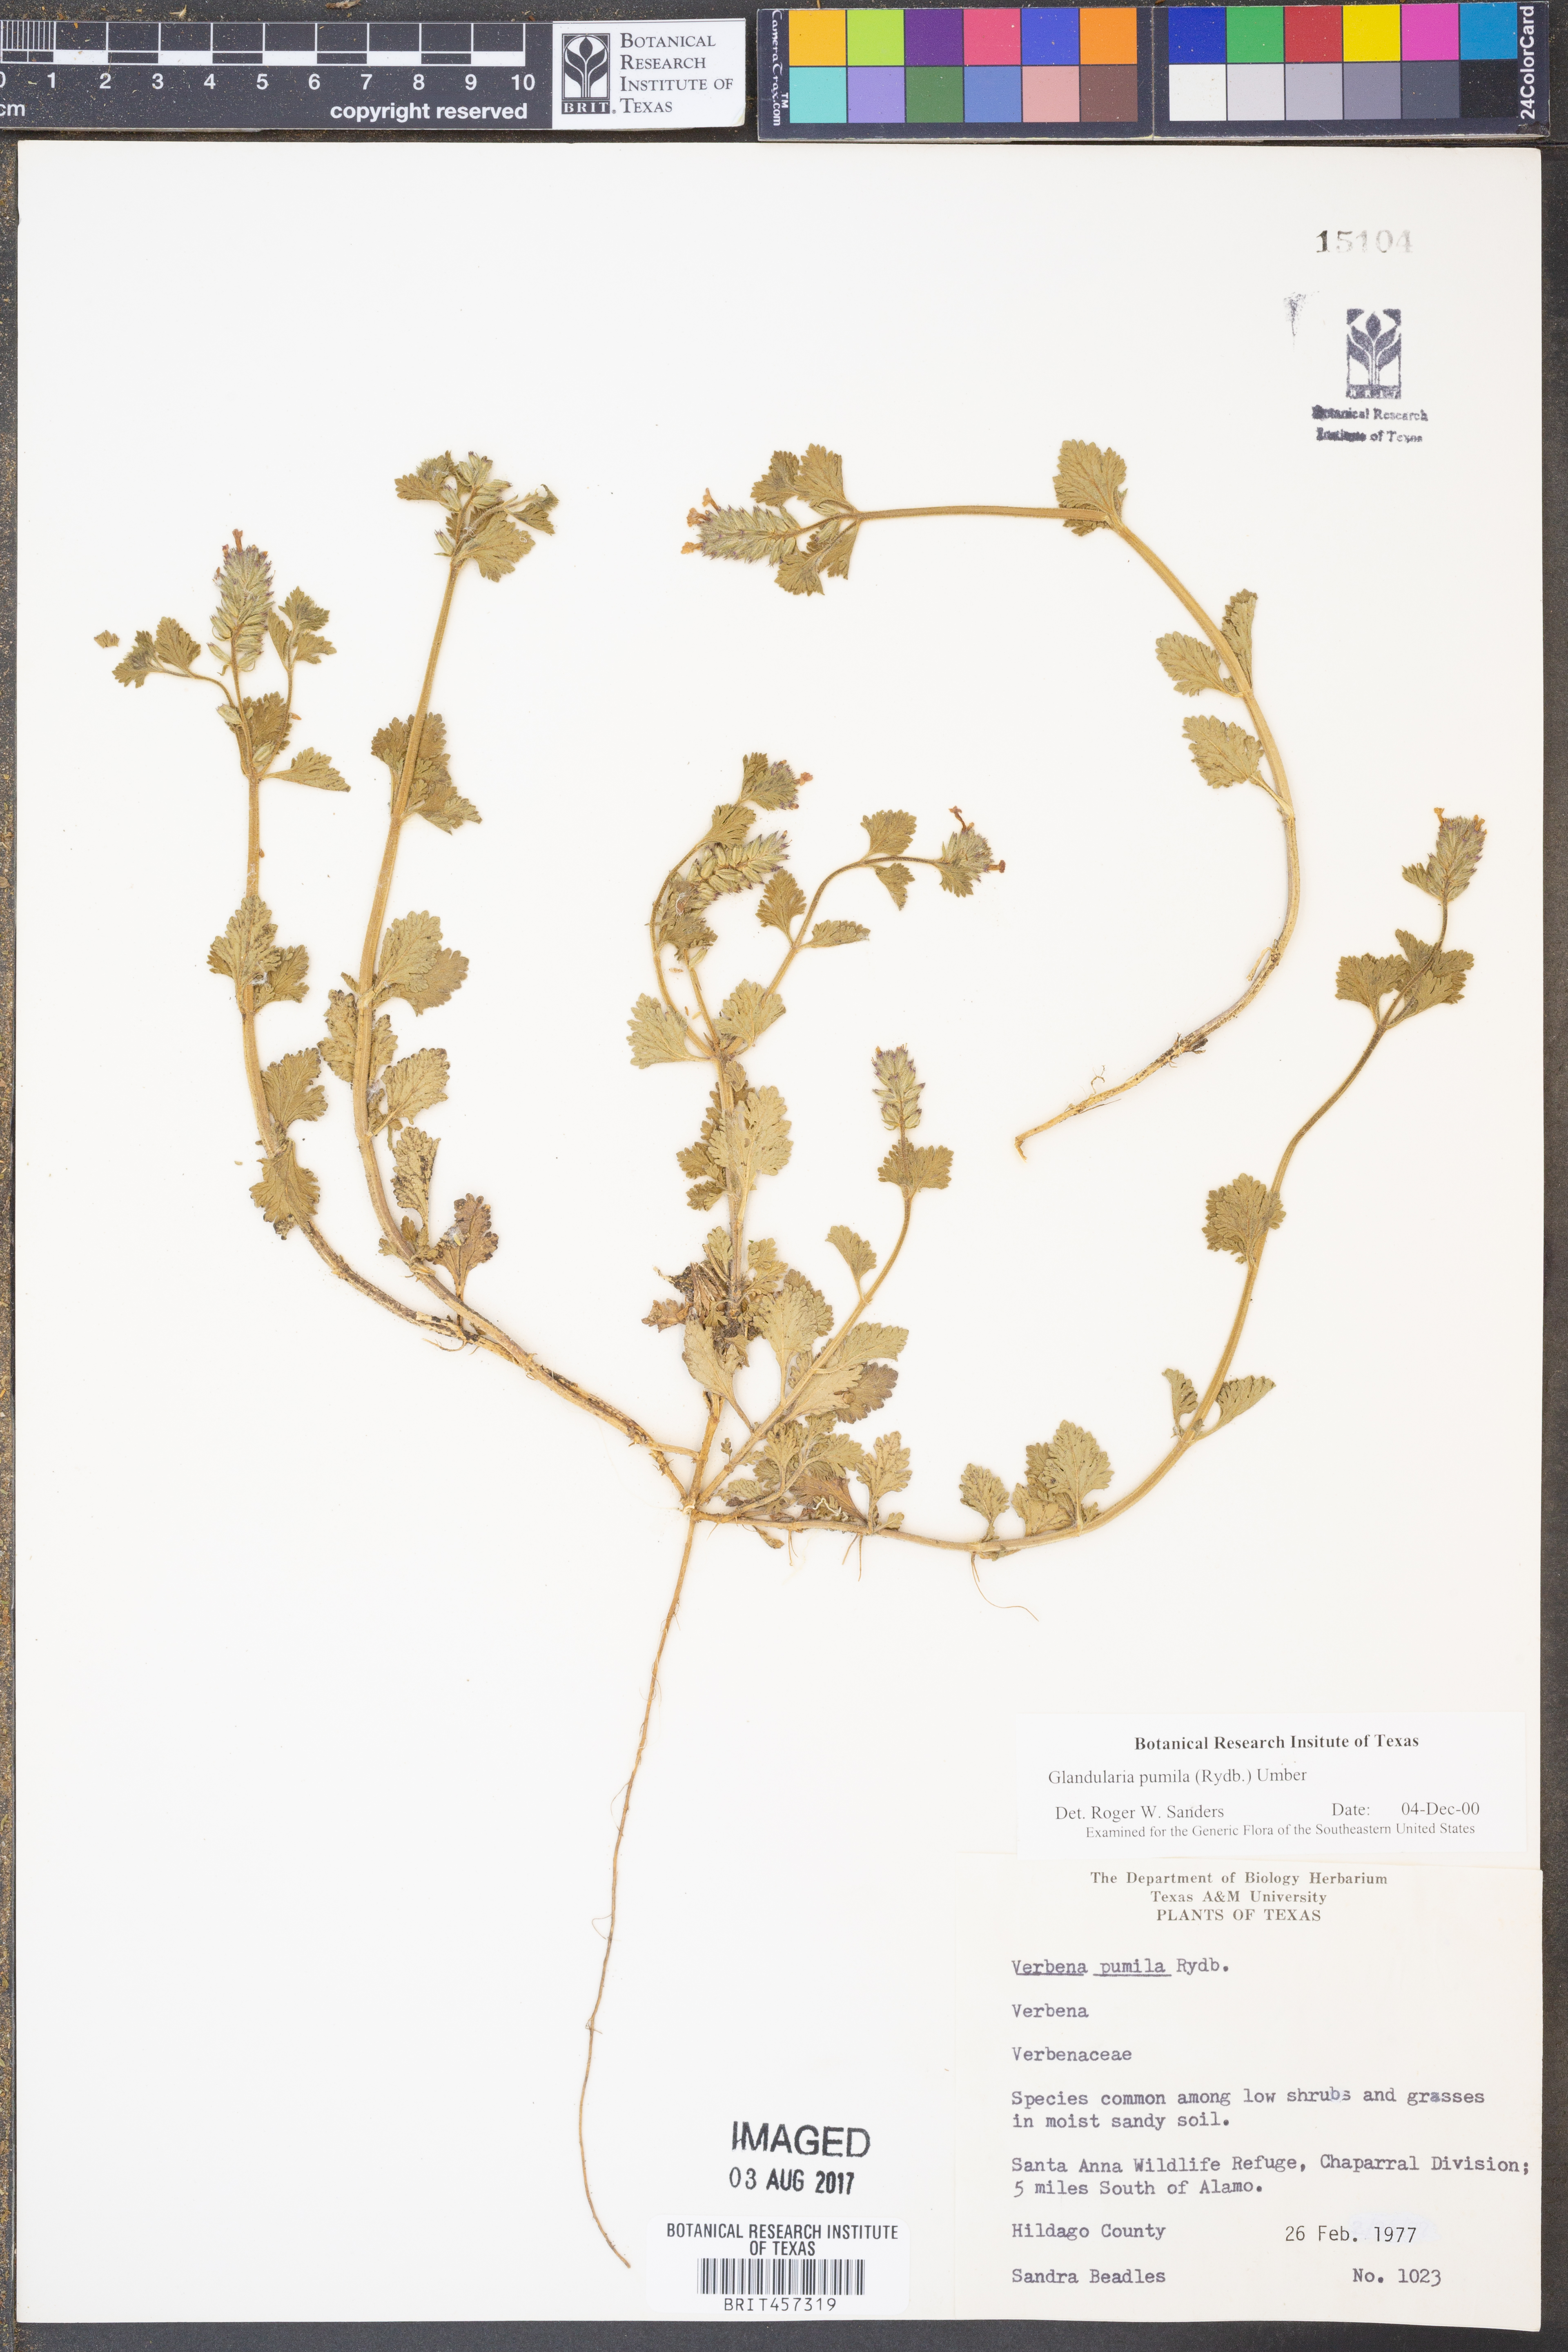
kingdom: Plantae
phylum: Tracheophyta
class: Magnoliopsida
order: Lamiales
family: Verbenaceae
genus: Verbena
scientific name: Verbena pumila
